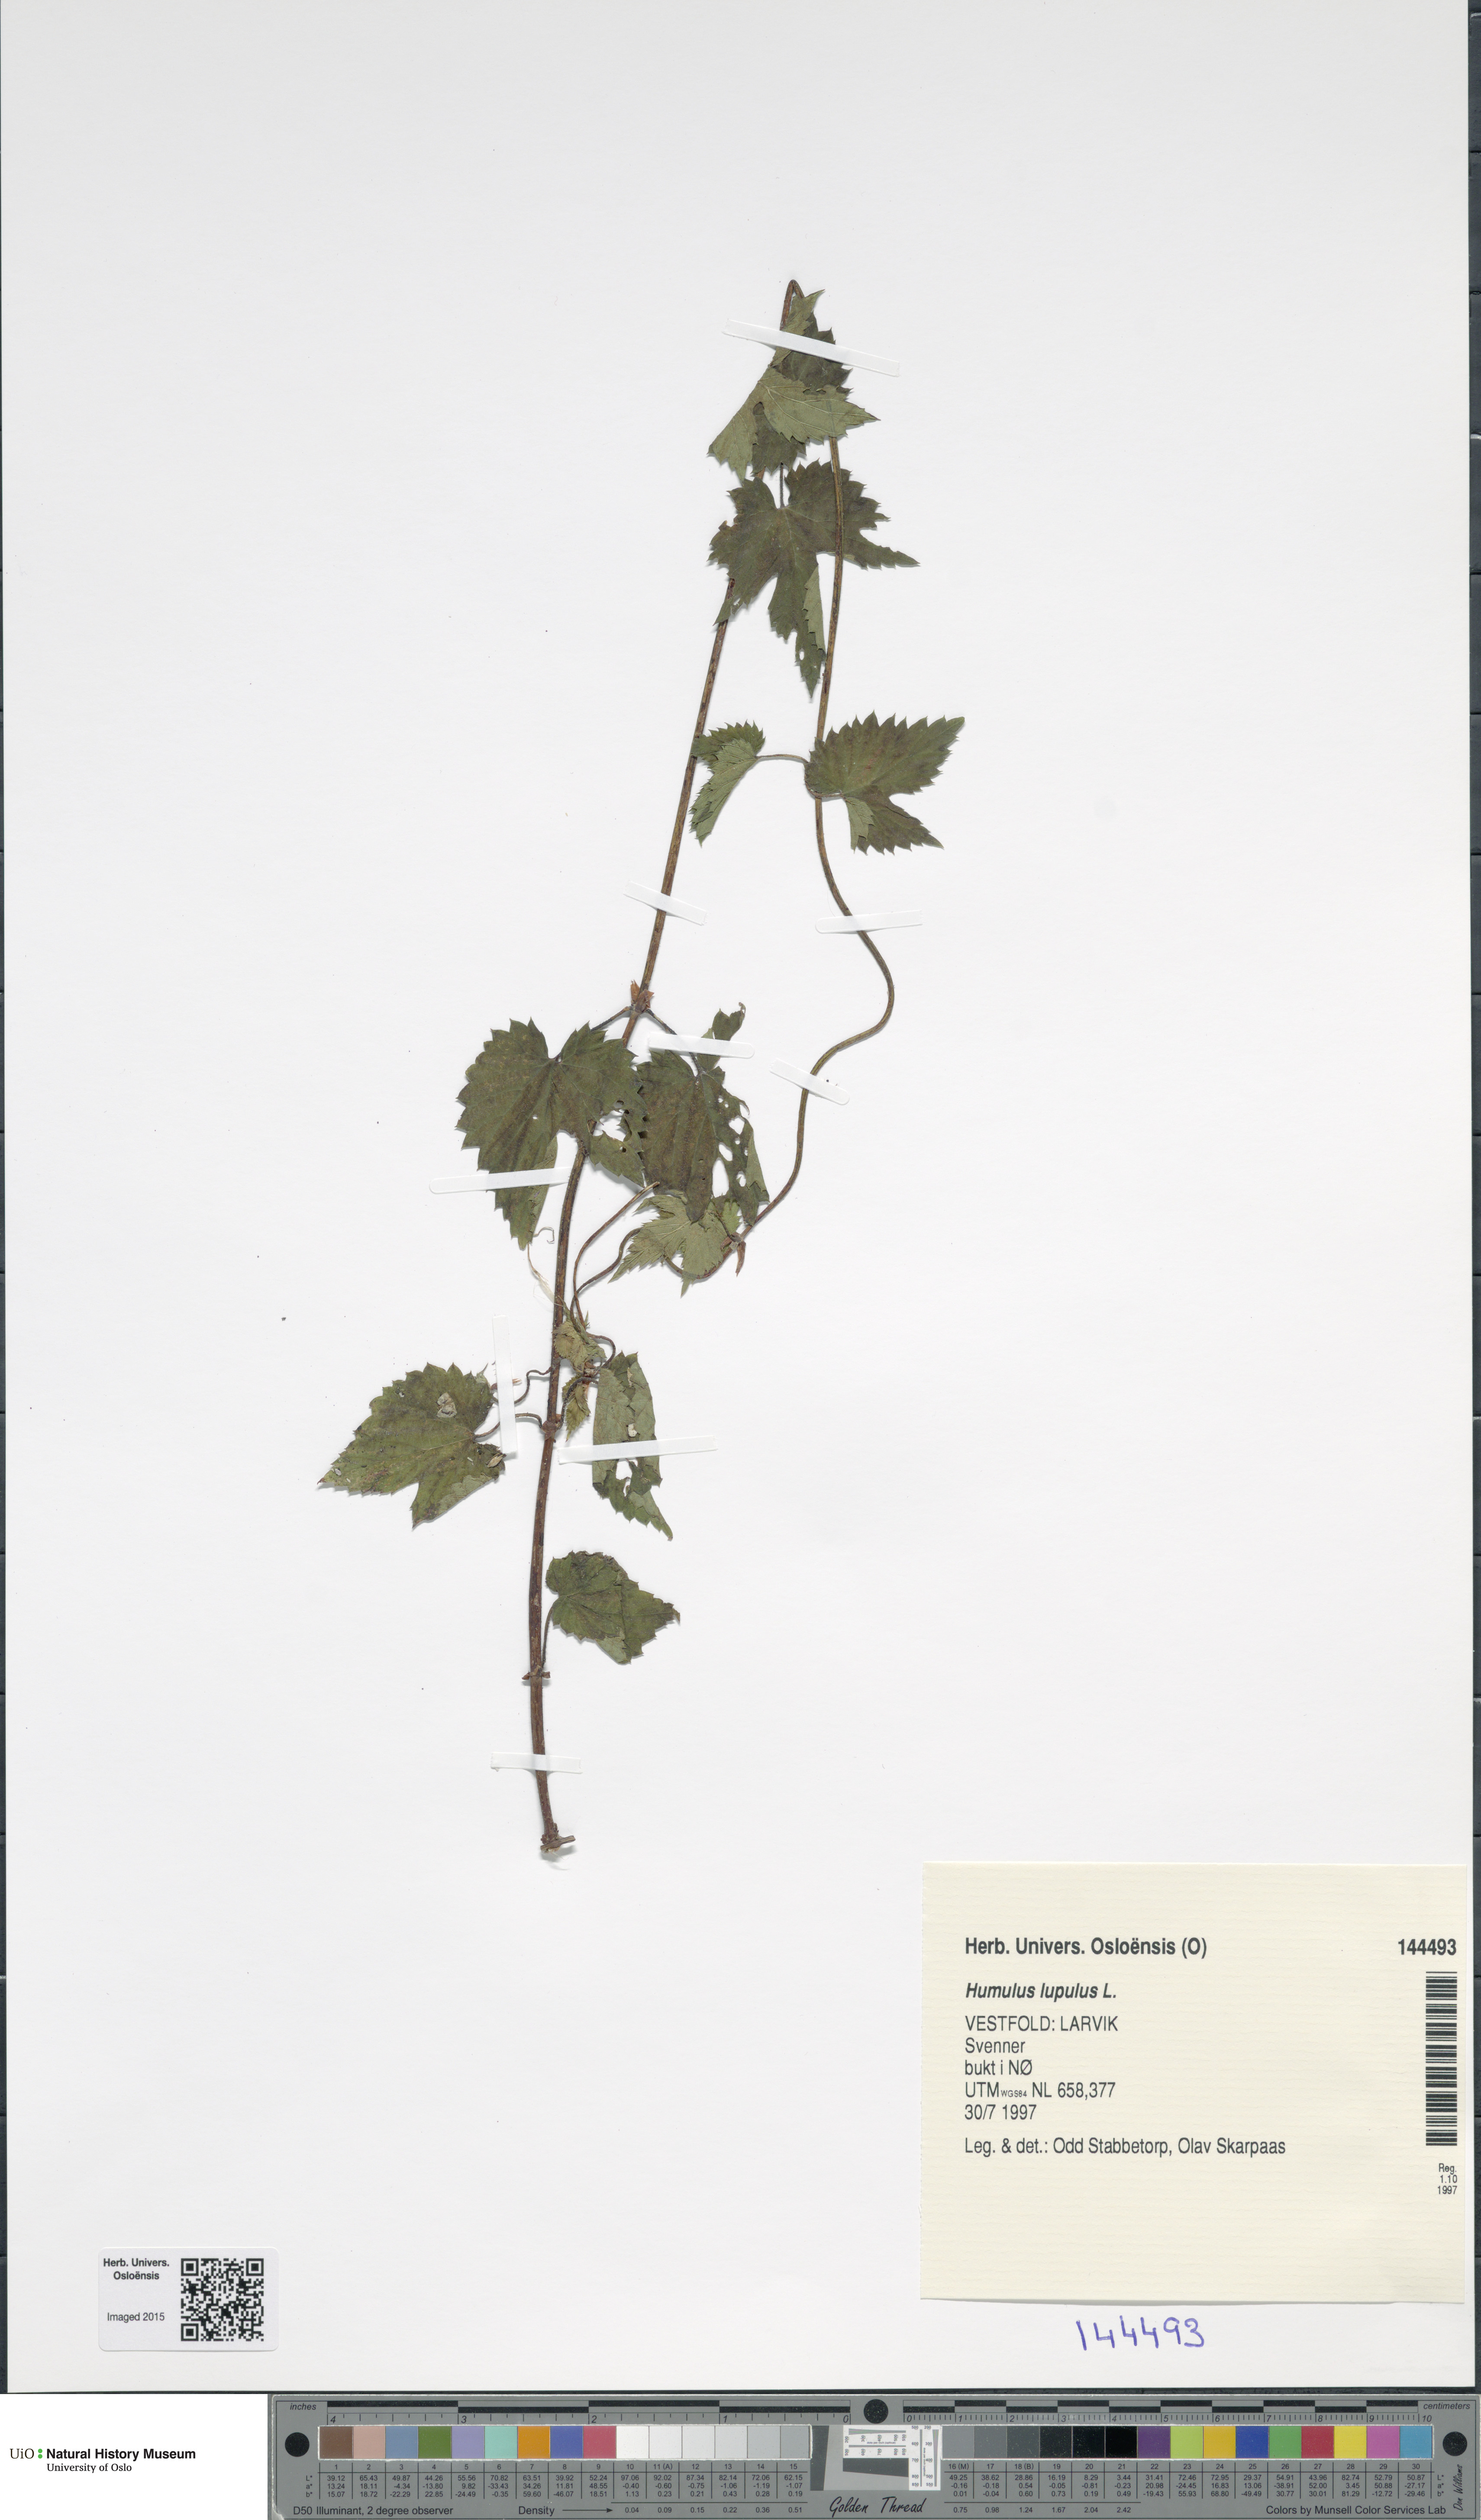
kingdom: Plantae
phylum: Tracheophyta
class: Magnoliopsida
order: Rosales
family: Cannabaceae
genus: Humulus
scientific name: Humulus lupulus
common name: Hop
